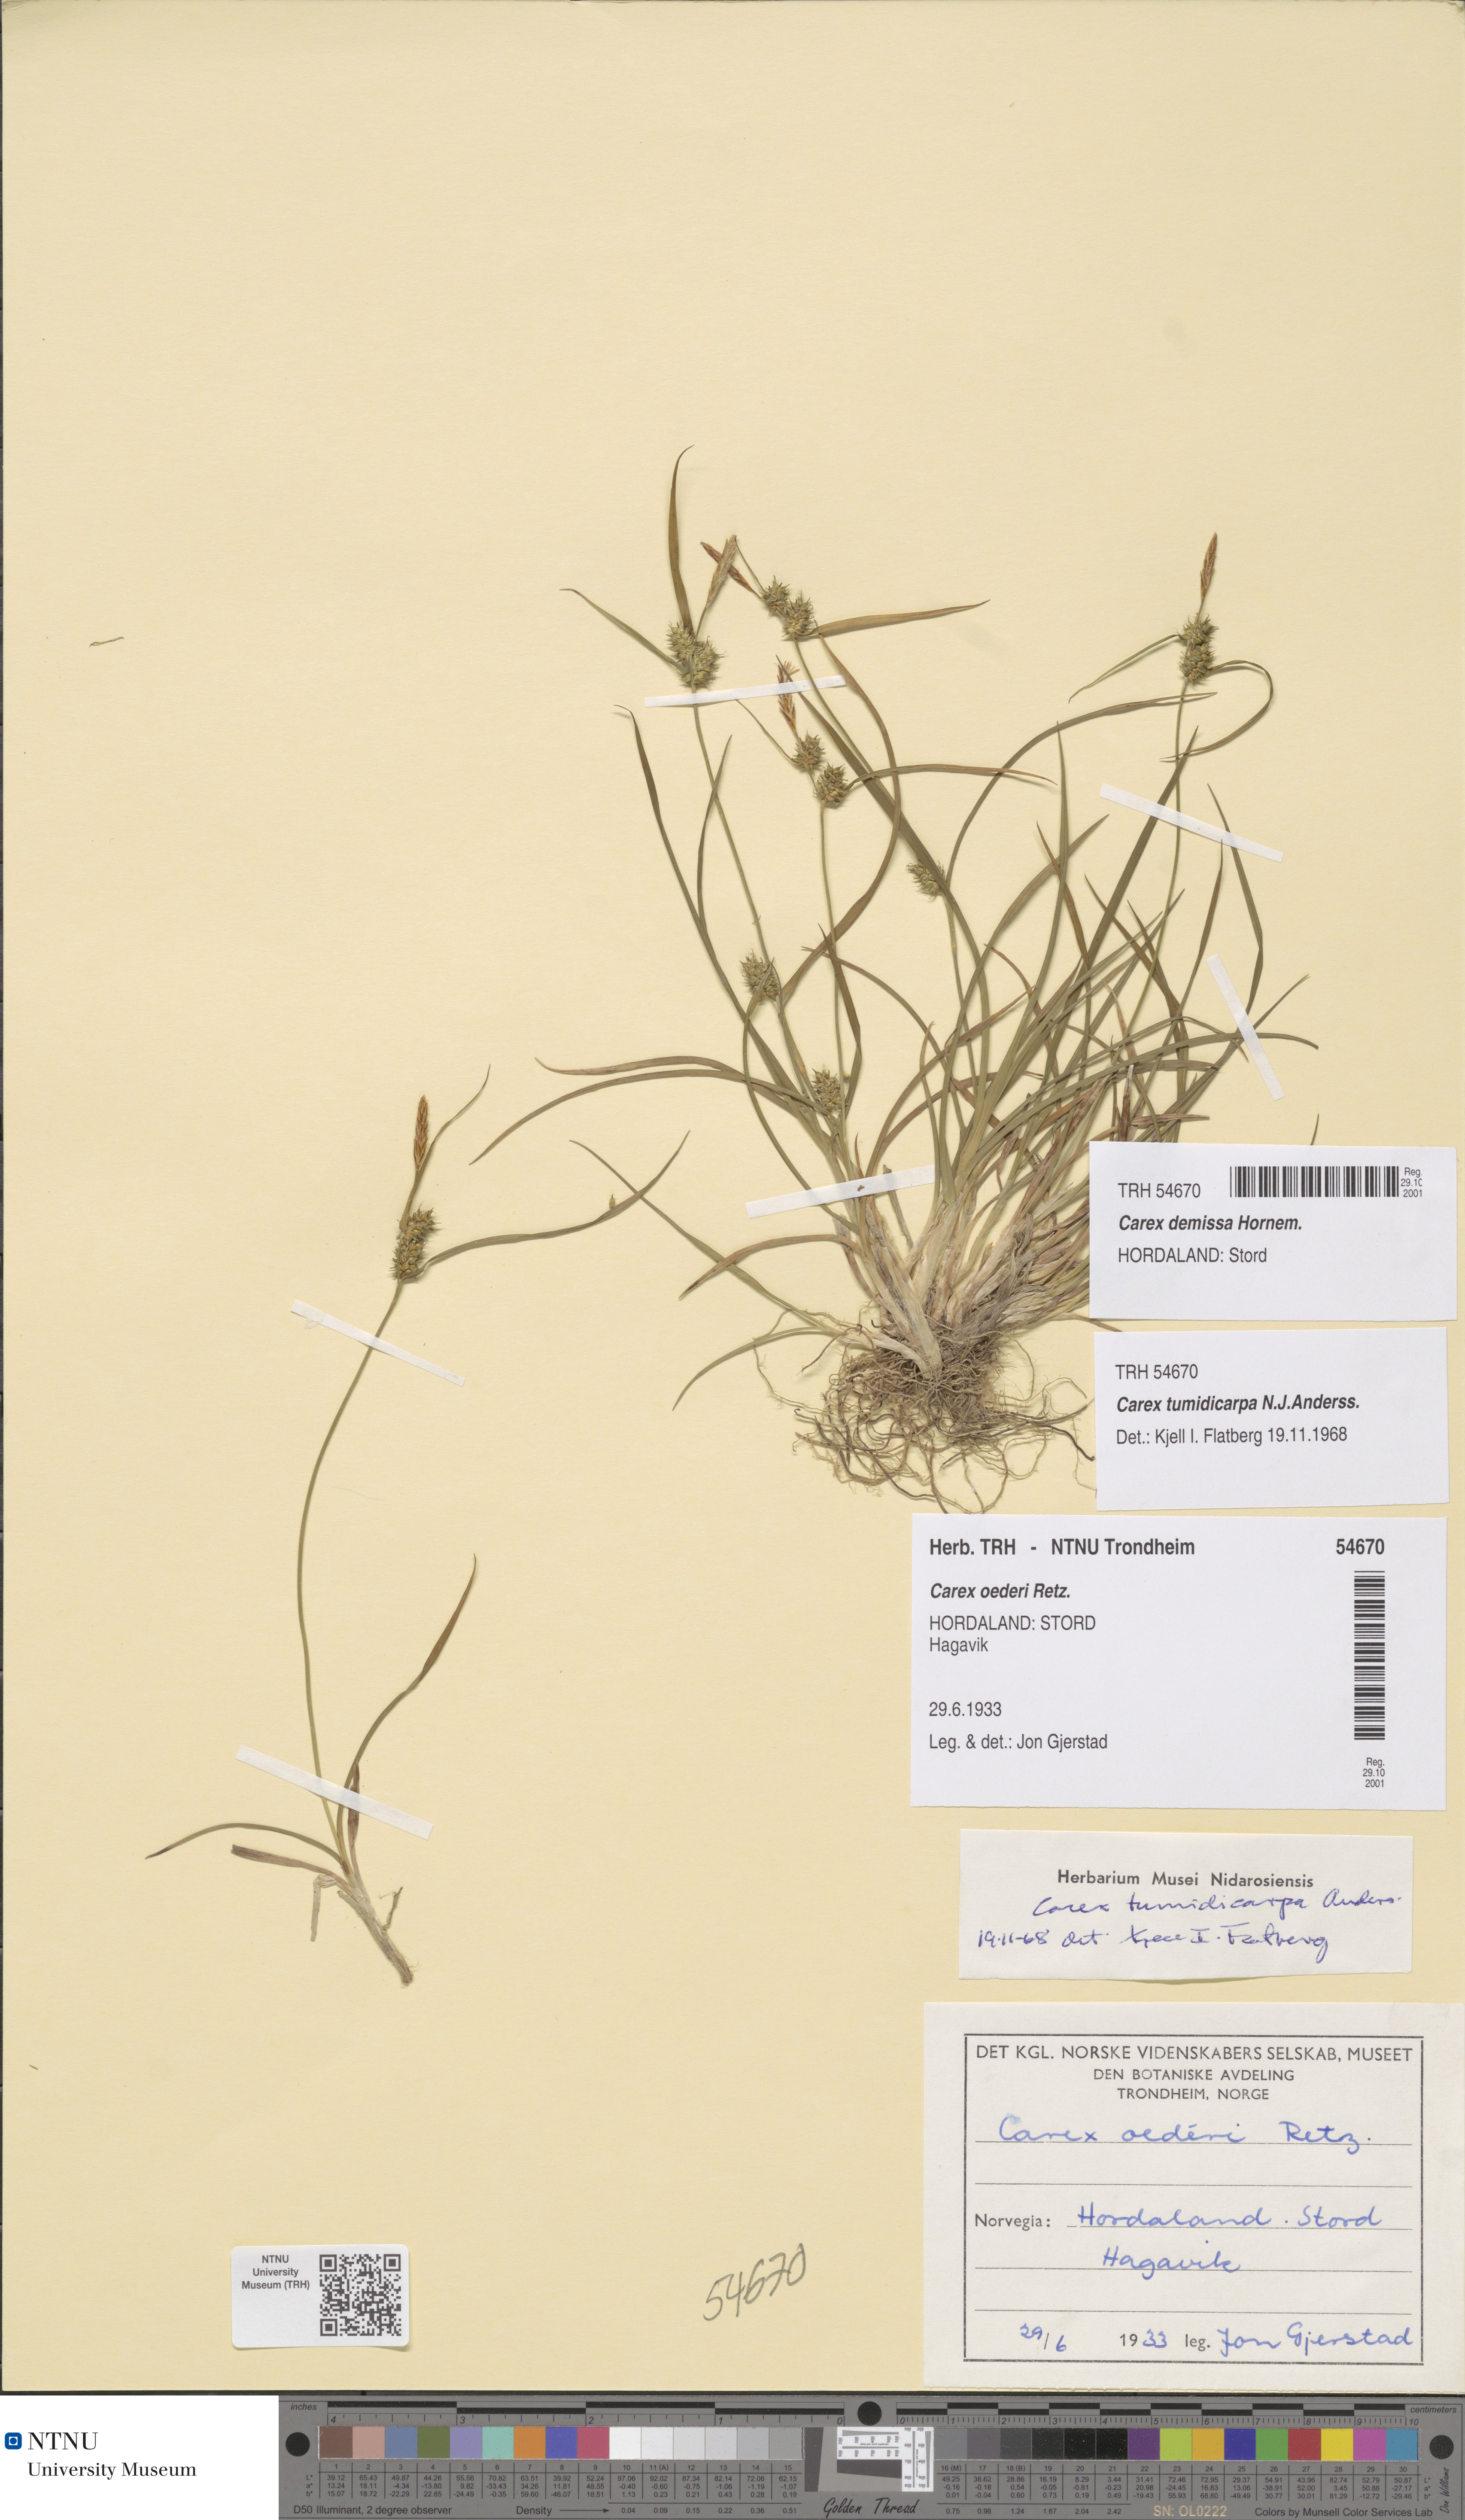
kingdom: Plantae
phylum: Tracheophyta
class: Liliopsida
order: Poales
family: Cyperaceae
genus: Carex
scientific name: Carex demissa
